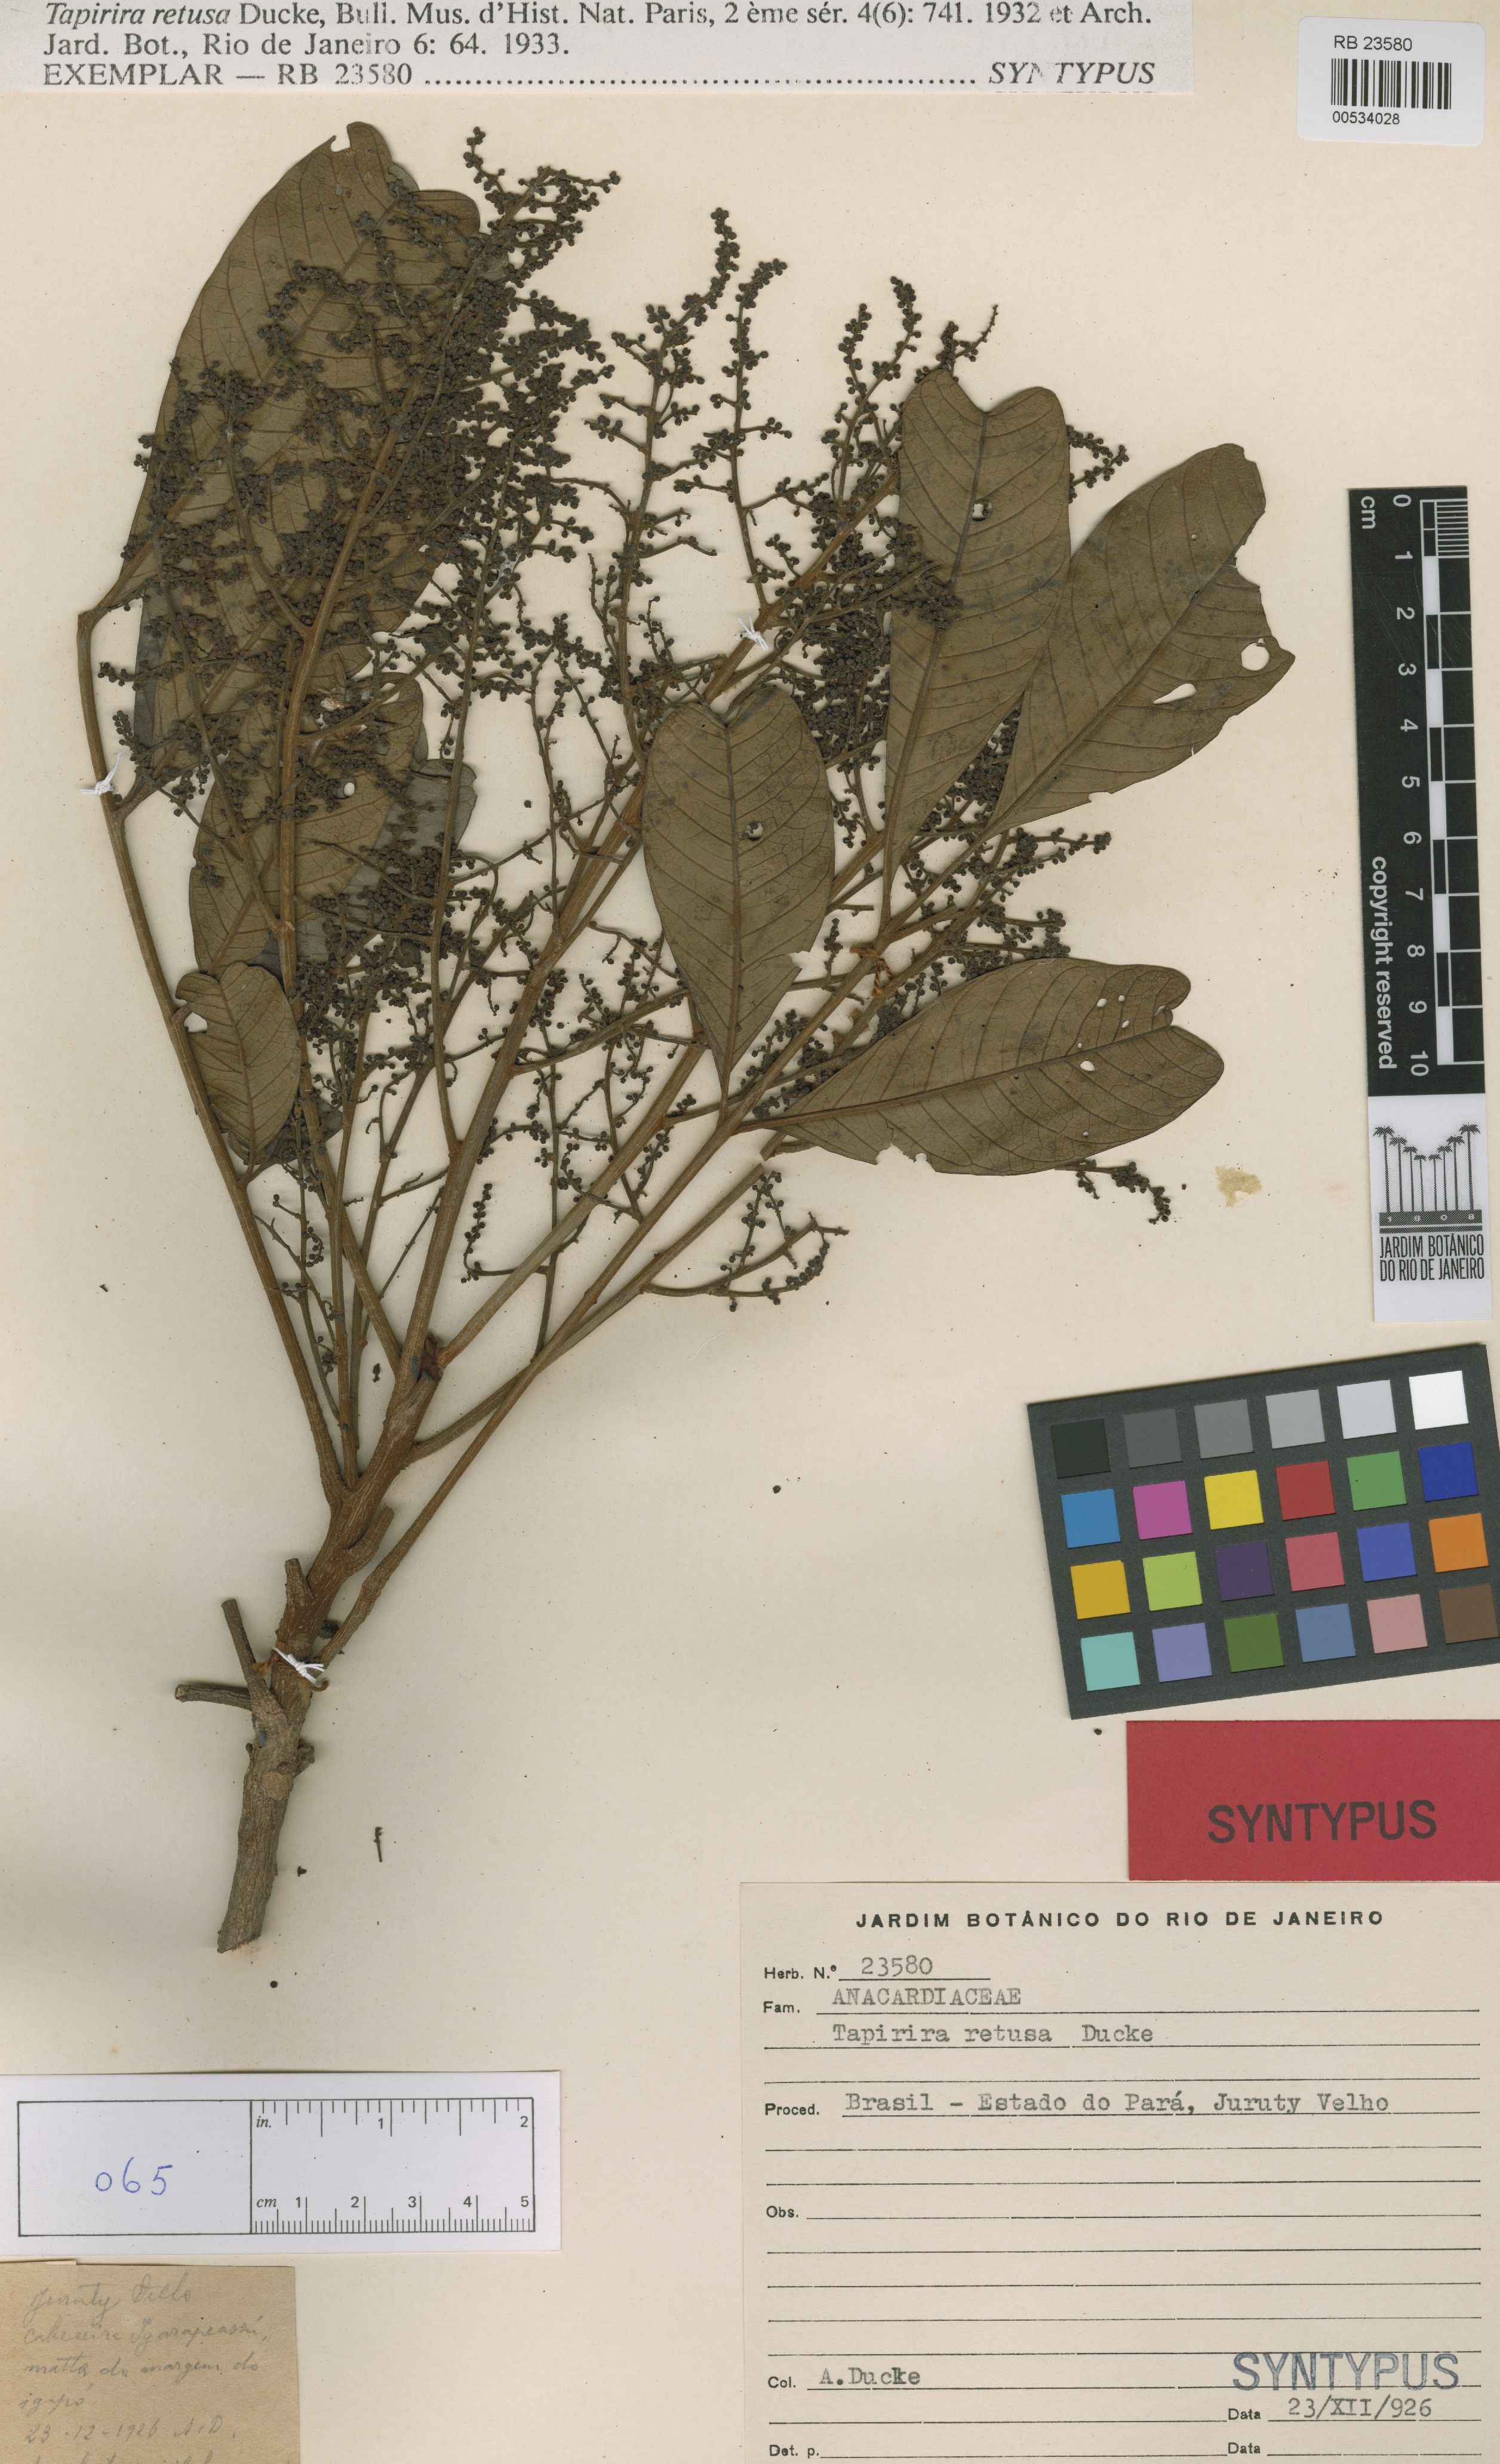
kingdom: Plantae
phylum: Tracheophyta
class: Magnoliopsida
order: Sapindales
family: Anacardiaceae
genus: Tapirira
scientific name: Tapirira retusa
